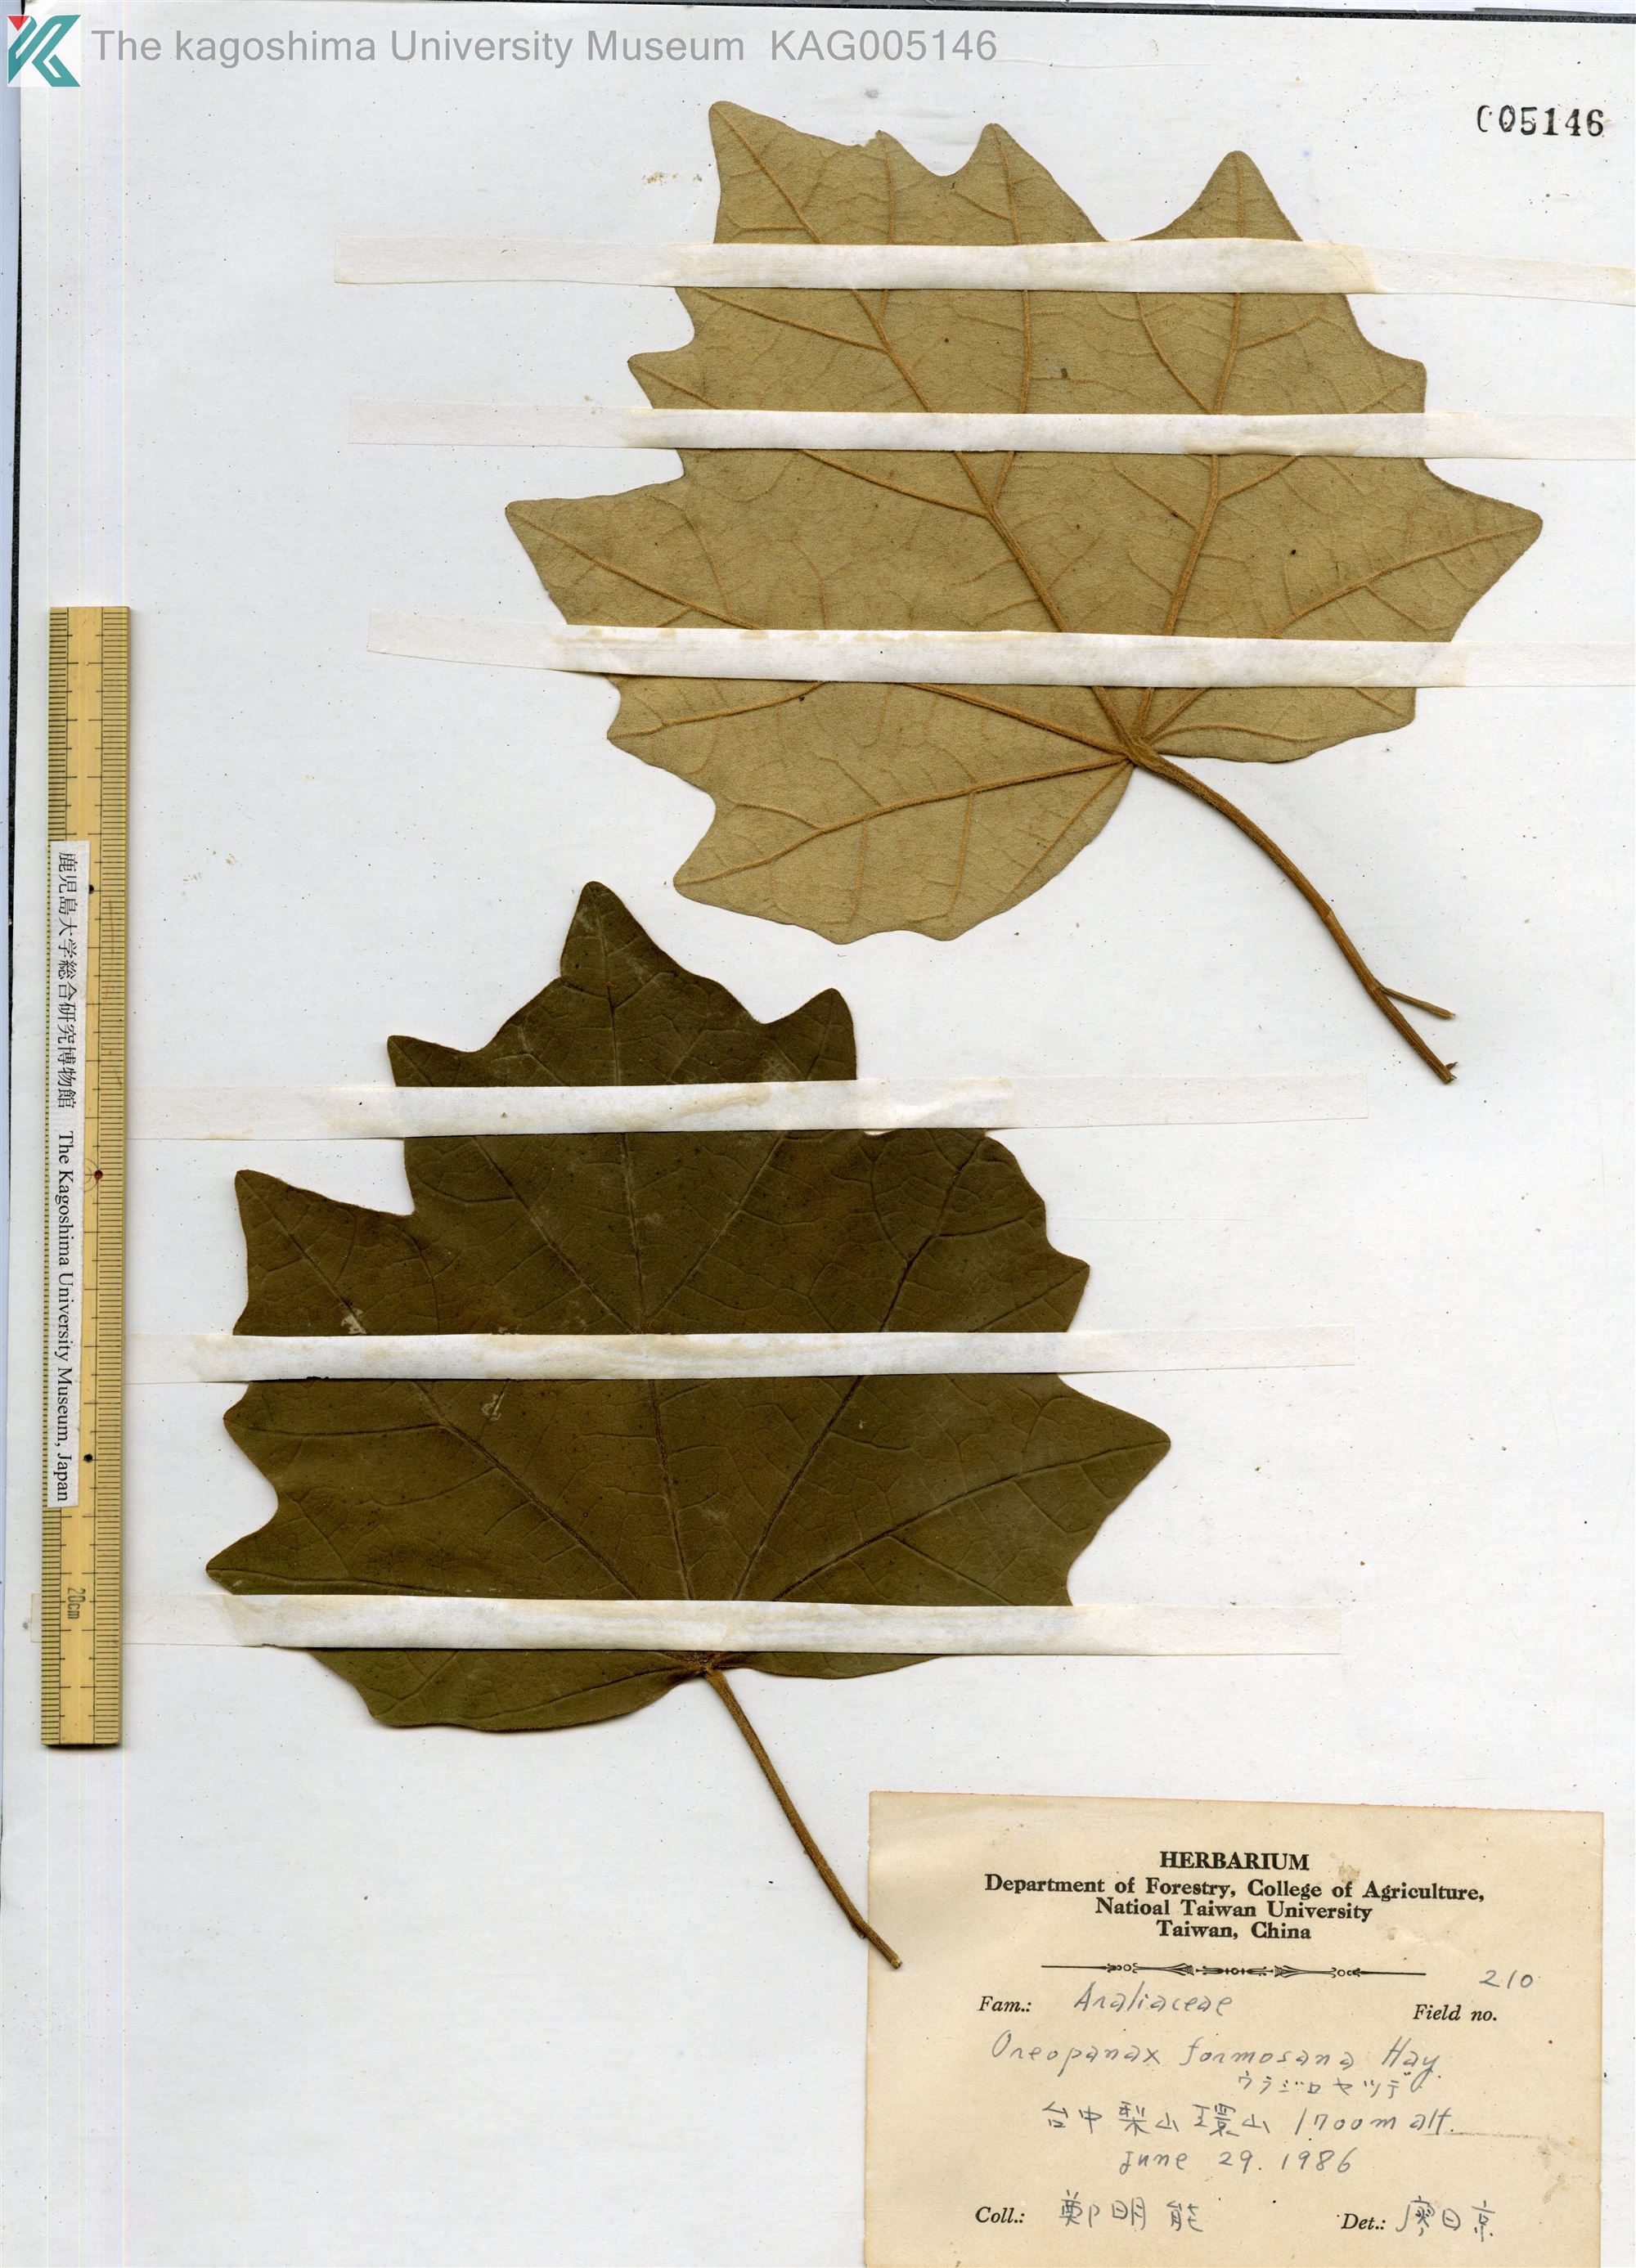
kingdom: Plantae
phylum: Tracheophyta
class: Magnoliopsida
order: Apiales
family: Araliaceae
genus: Sinopanax
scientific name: Sinopanax formosanus
